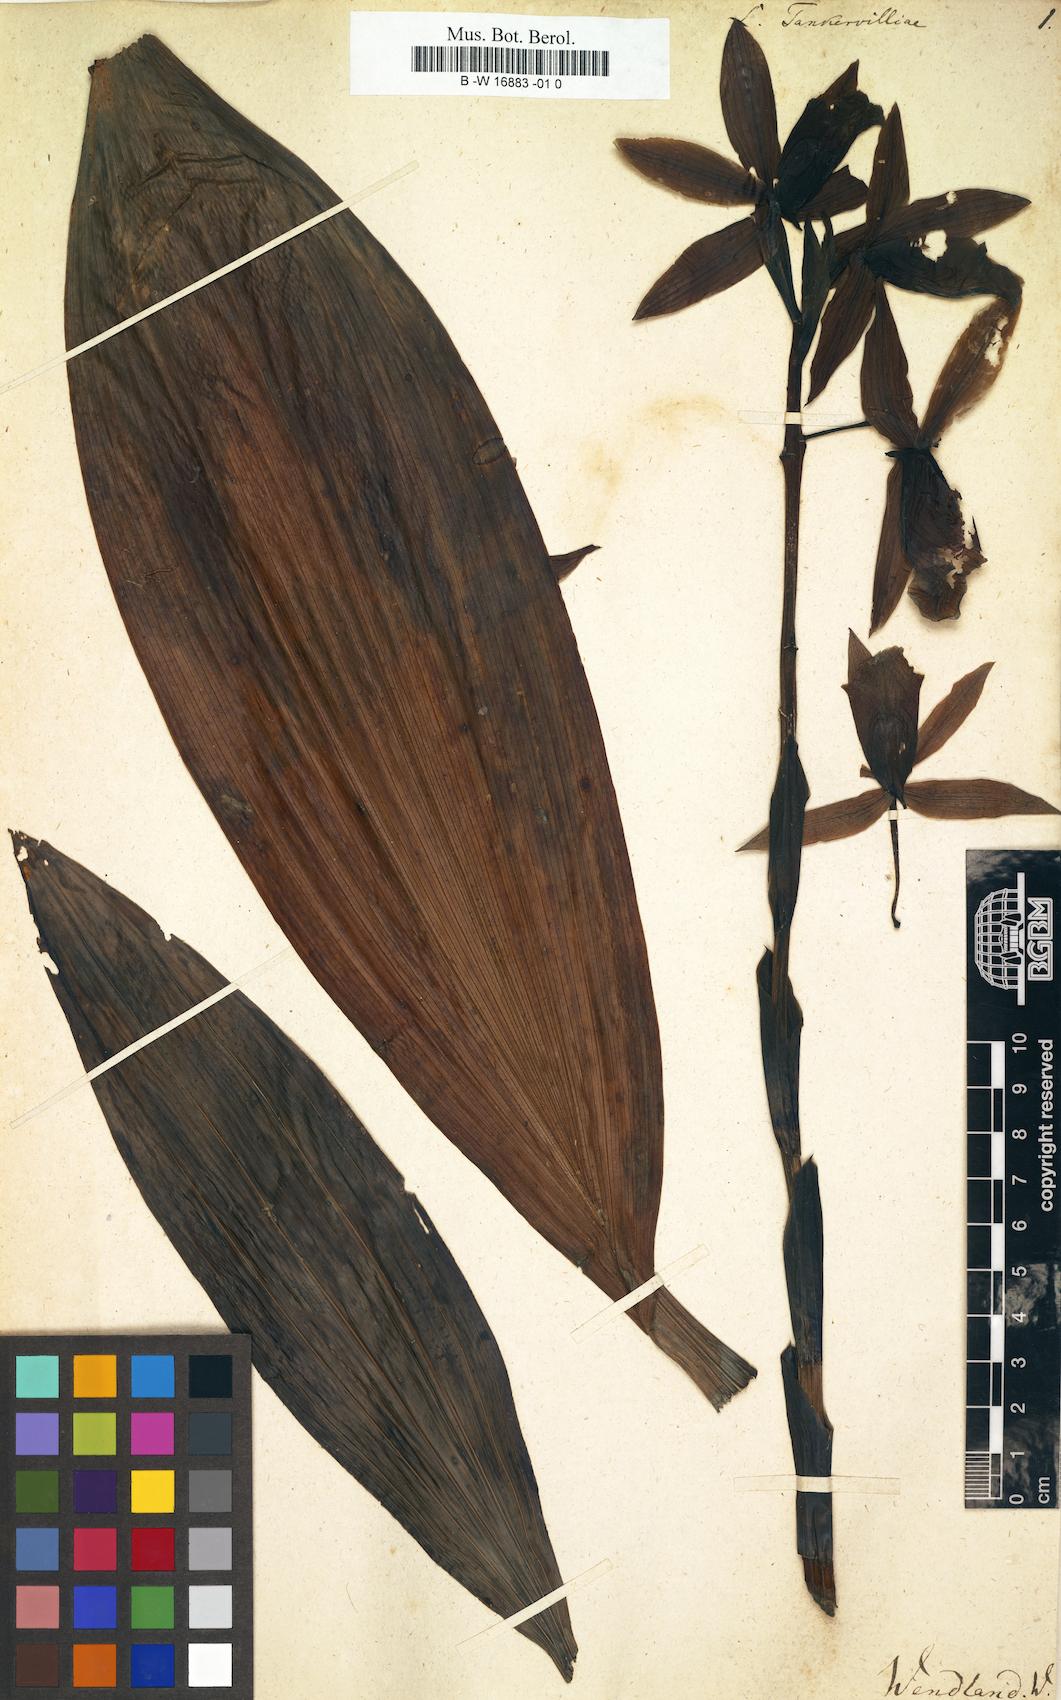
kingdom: Plantae
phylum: Tracheophyta
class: Liliopsida
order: Asparagales
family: Orchidaceae
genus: Calopogon
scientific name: Calopogon Limodorum tankervilliae
